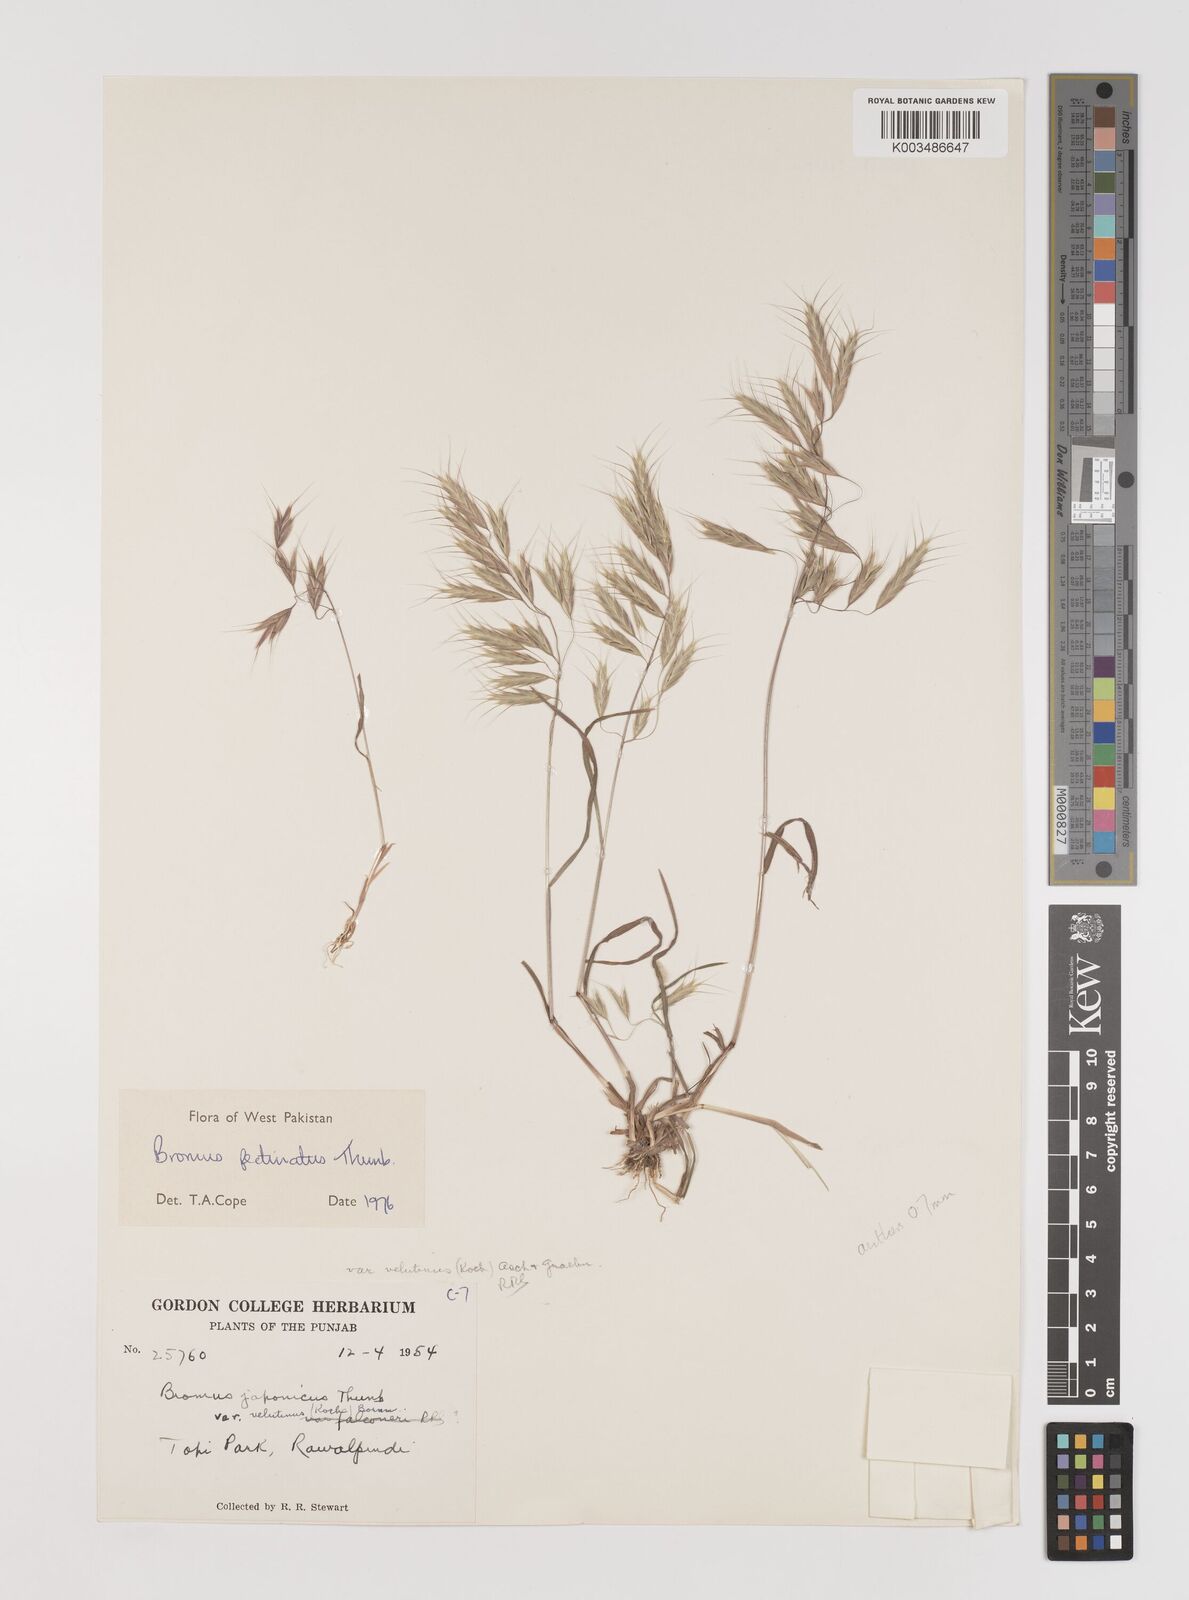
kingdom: Plantae
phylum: Tracheophyta
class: Liliopsida
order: Poales
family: Poaceae
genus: Bromus
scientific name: Bromus pectinatus
